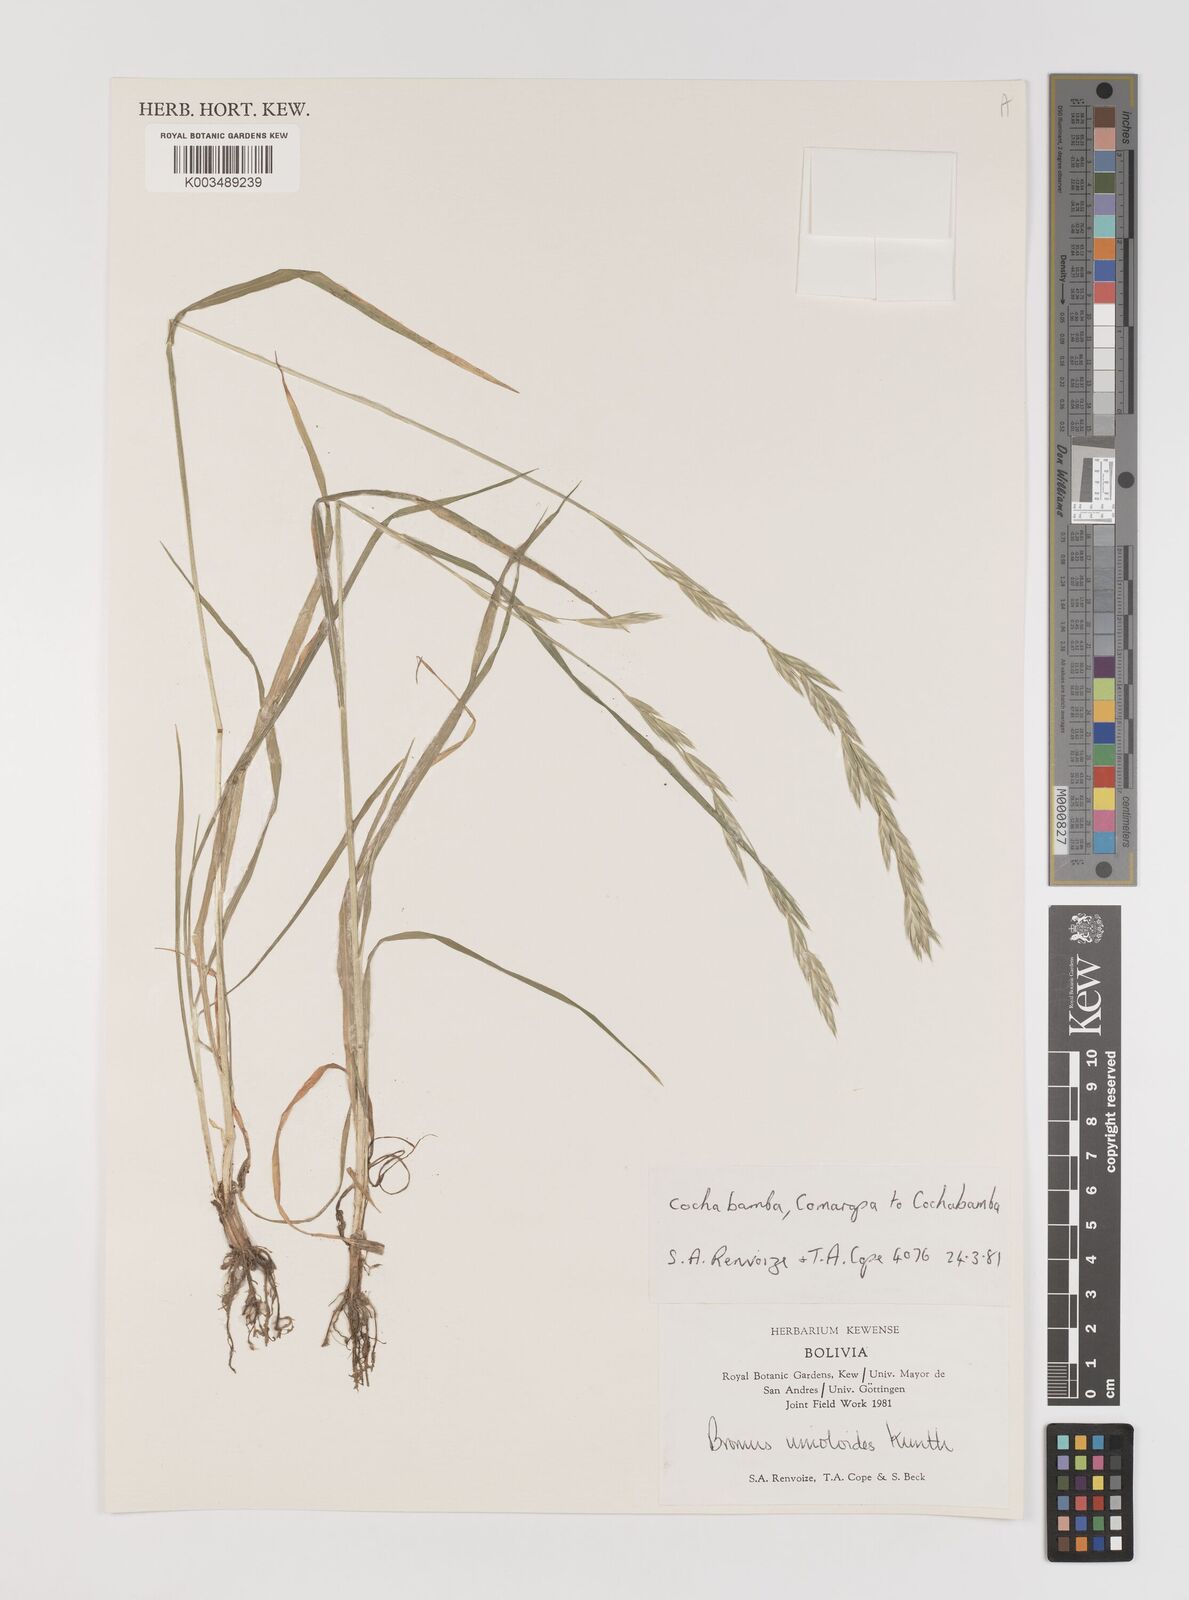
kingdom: Plantae
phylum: Tracheophyta
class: Liliopsida
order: Poales
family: Poaceae
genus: Bromus
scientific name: Bromus catharticus
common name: Rescuegrass
